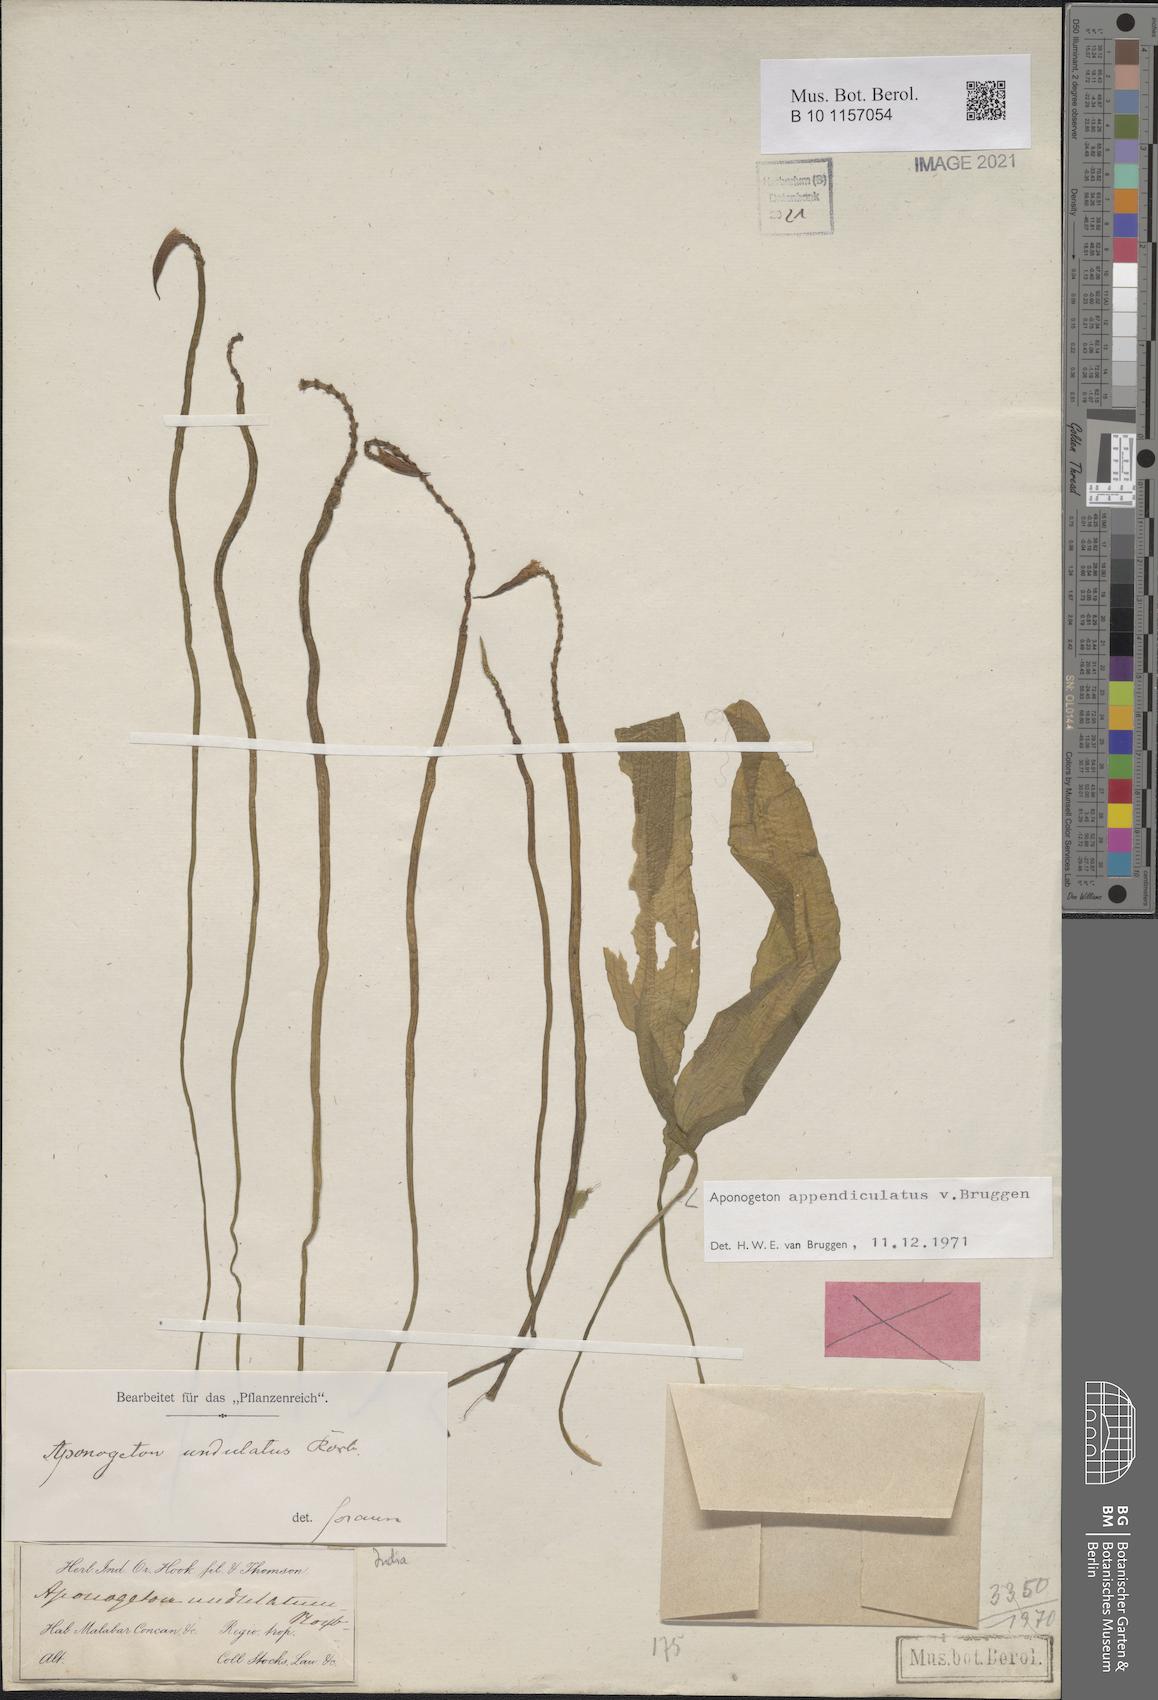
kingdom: Plantae
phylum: Tracheophyta
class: Liliopsida
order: Alismatales
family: Aponogetonaceae
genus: Aponogeton
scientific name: Aponogeton appendiculatus
